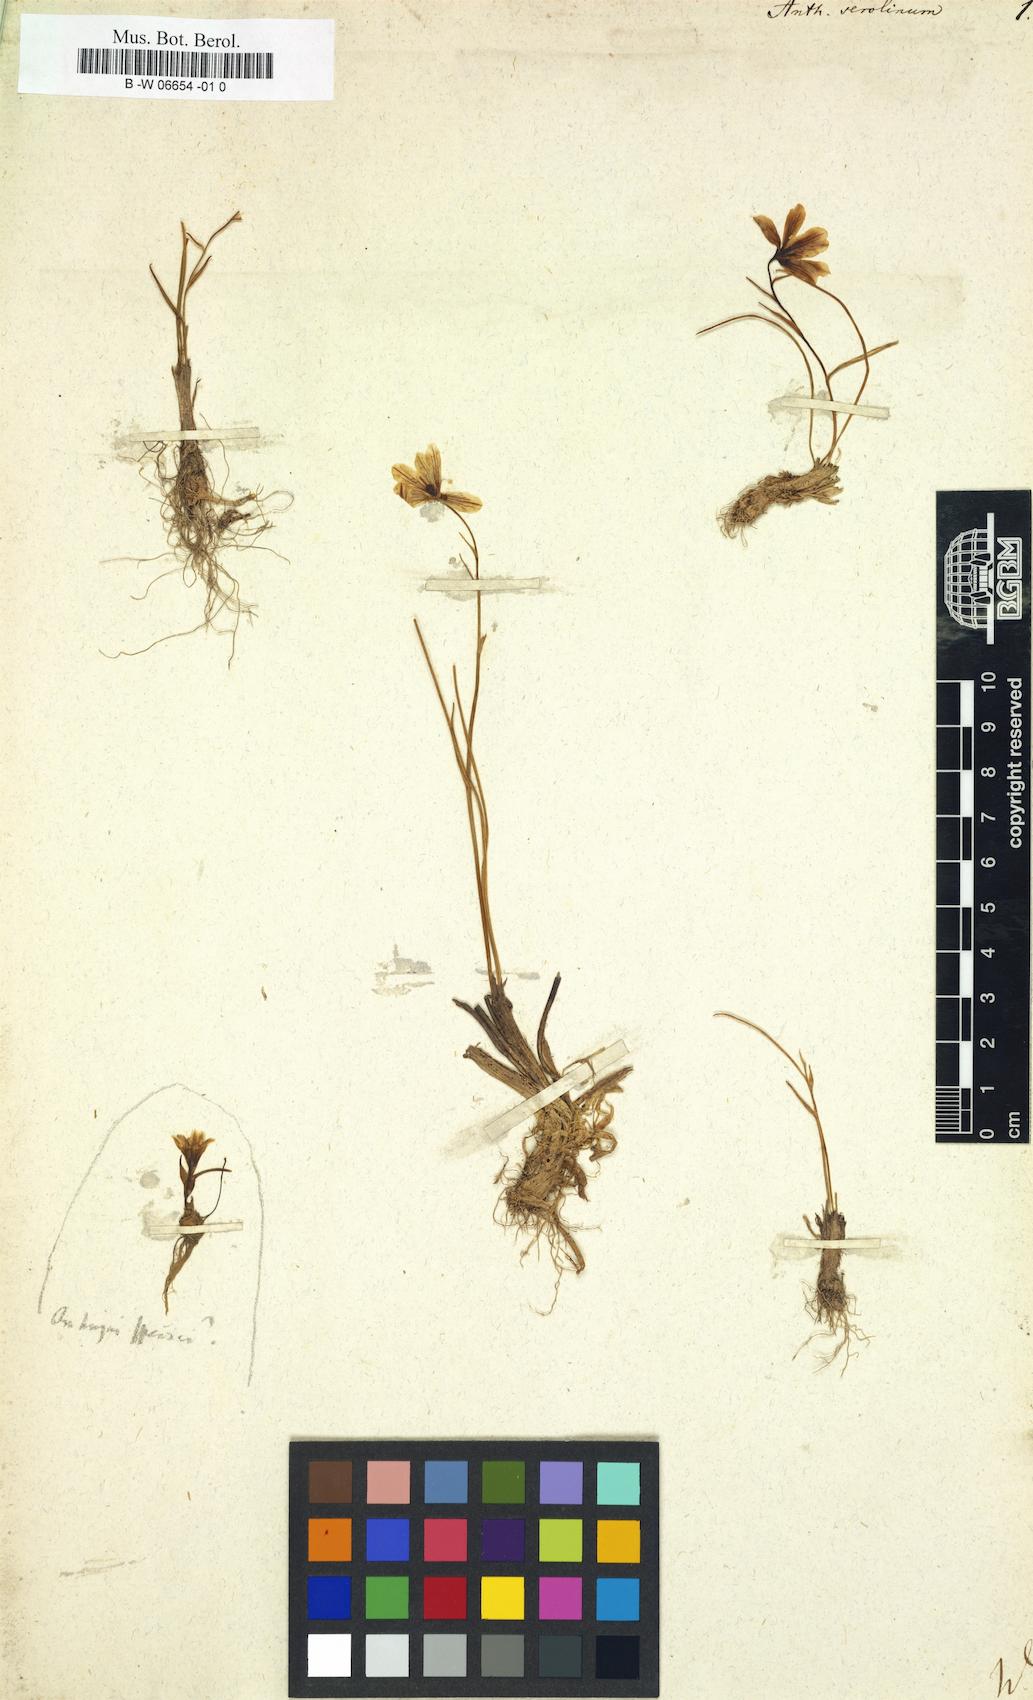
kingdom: Plantae
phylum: Tracheophyta
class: Liliopsida
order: Liliales
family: Liliaceae
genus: Gagea
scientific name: Gagea serotina
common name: Snowdon lily
